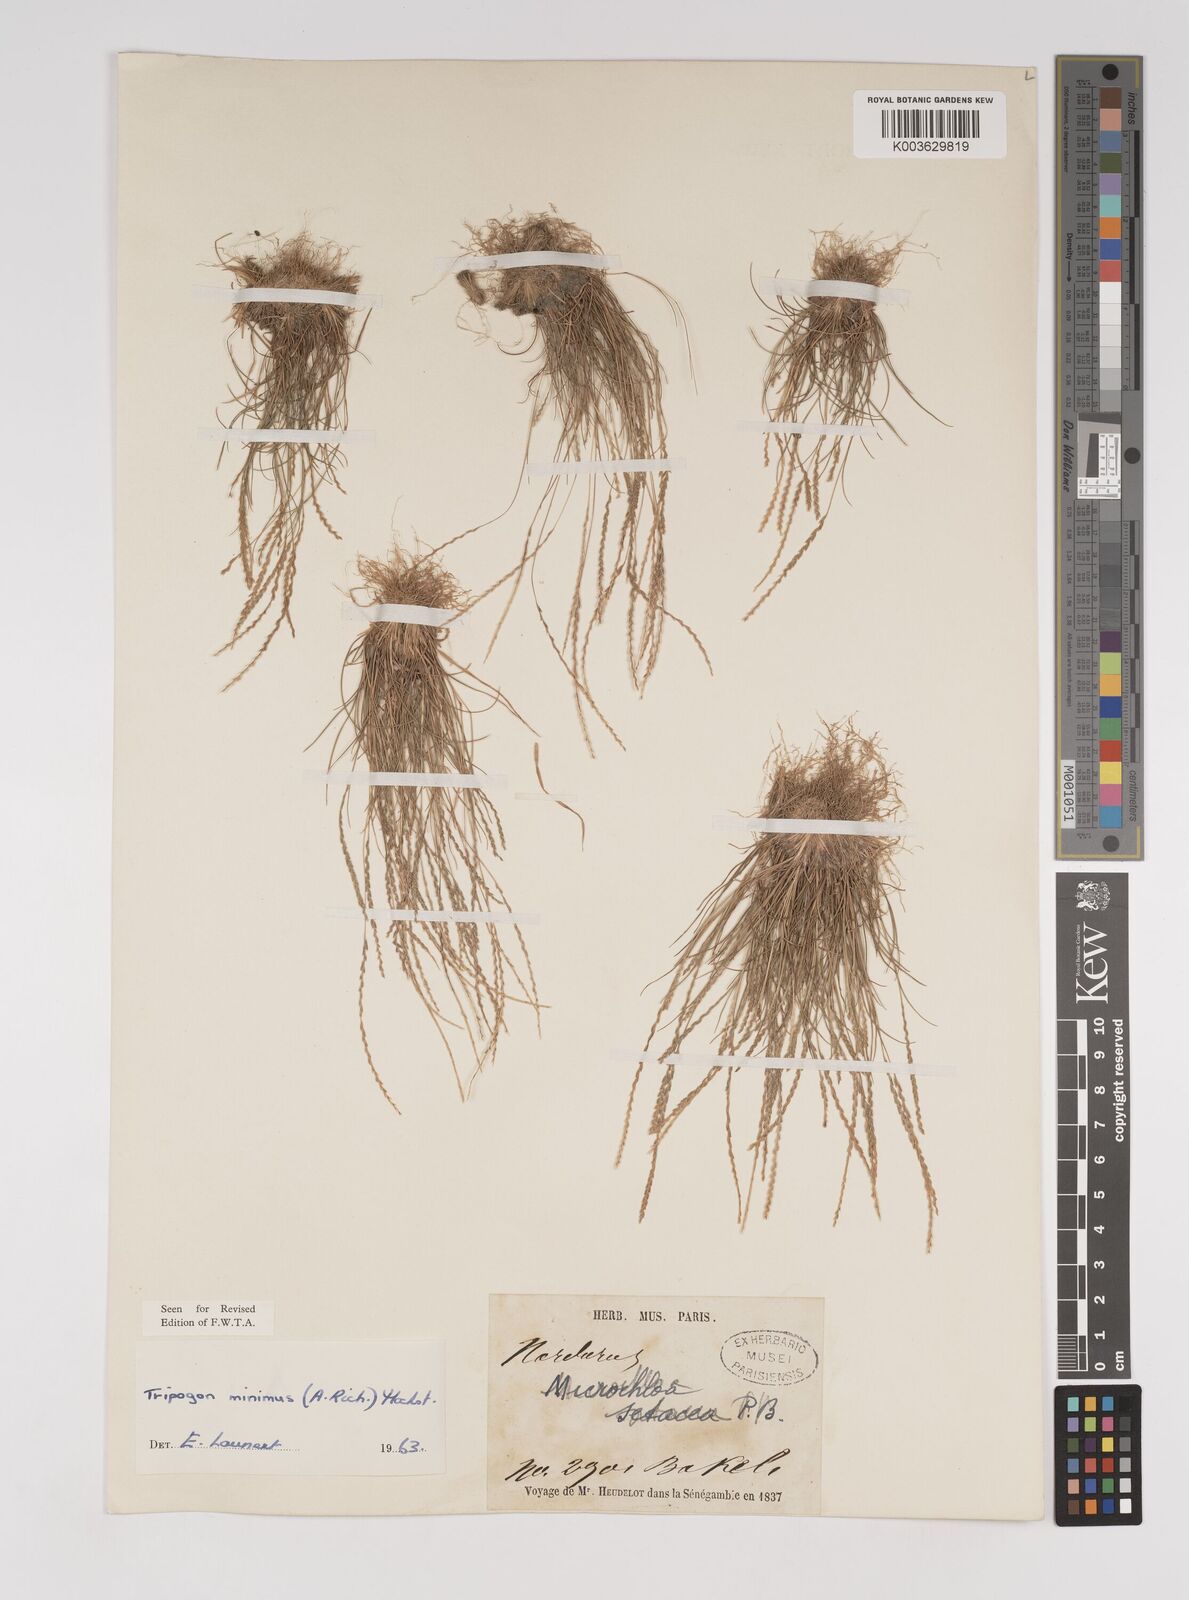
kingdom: Plantae
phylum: Tracheophyta
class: Liliopsida
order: Poales
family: Poaceae
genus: Tripogonella
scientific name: Tripogonella minima
